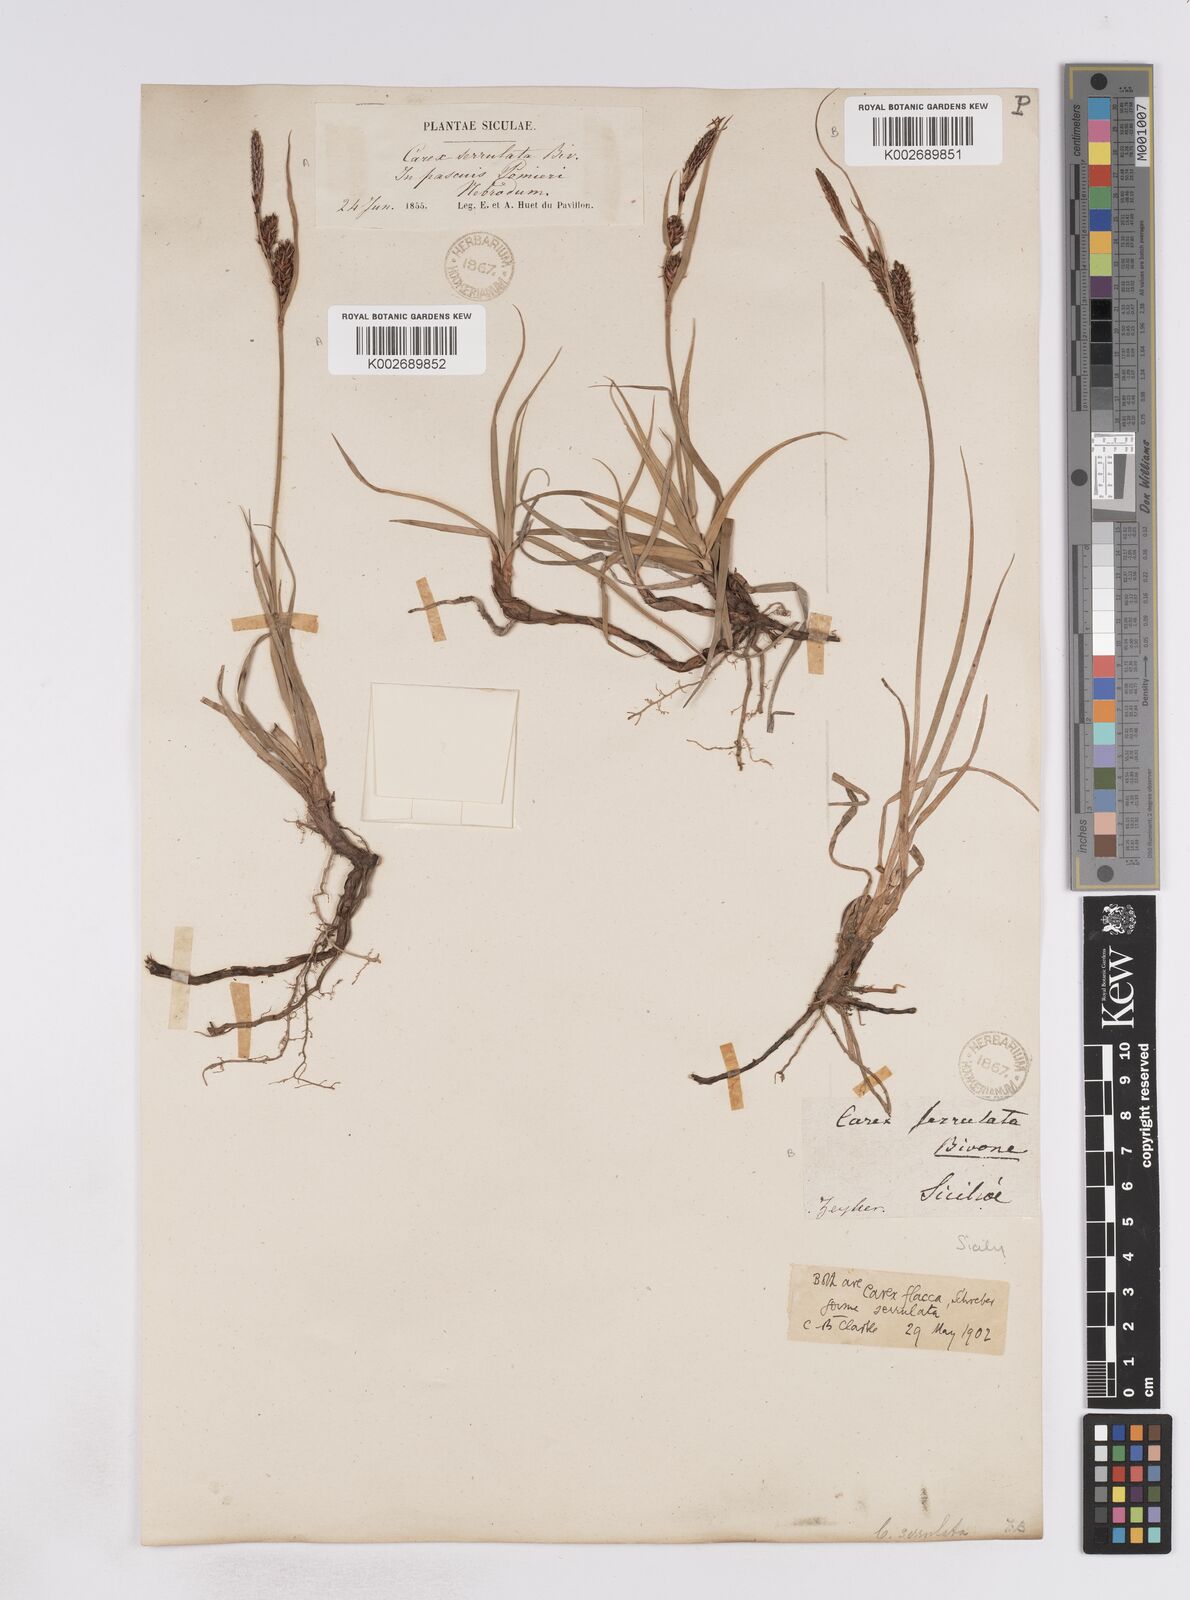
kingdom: Plantae
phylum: Tracheophyta
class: Liliopsida
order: Poales
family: Cyperaceae
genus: Carex
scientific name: Carex flacca
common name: Glaucous sedge
